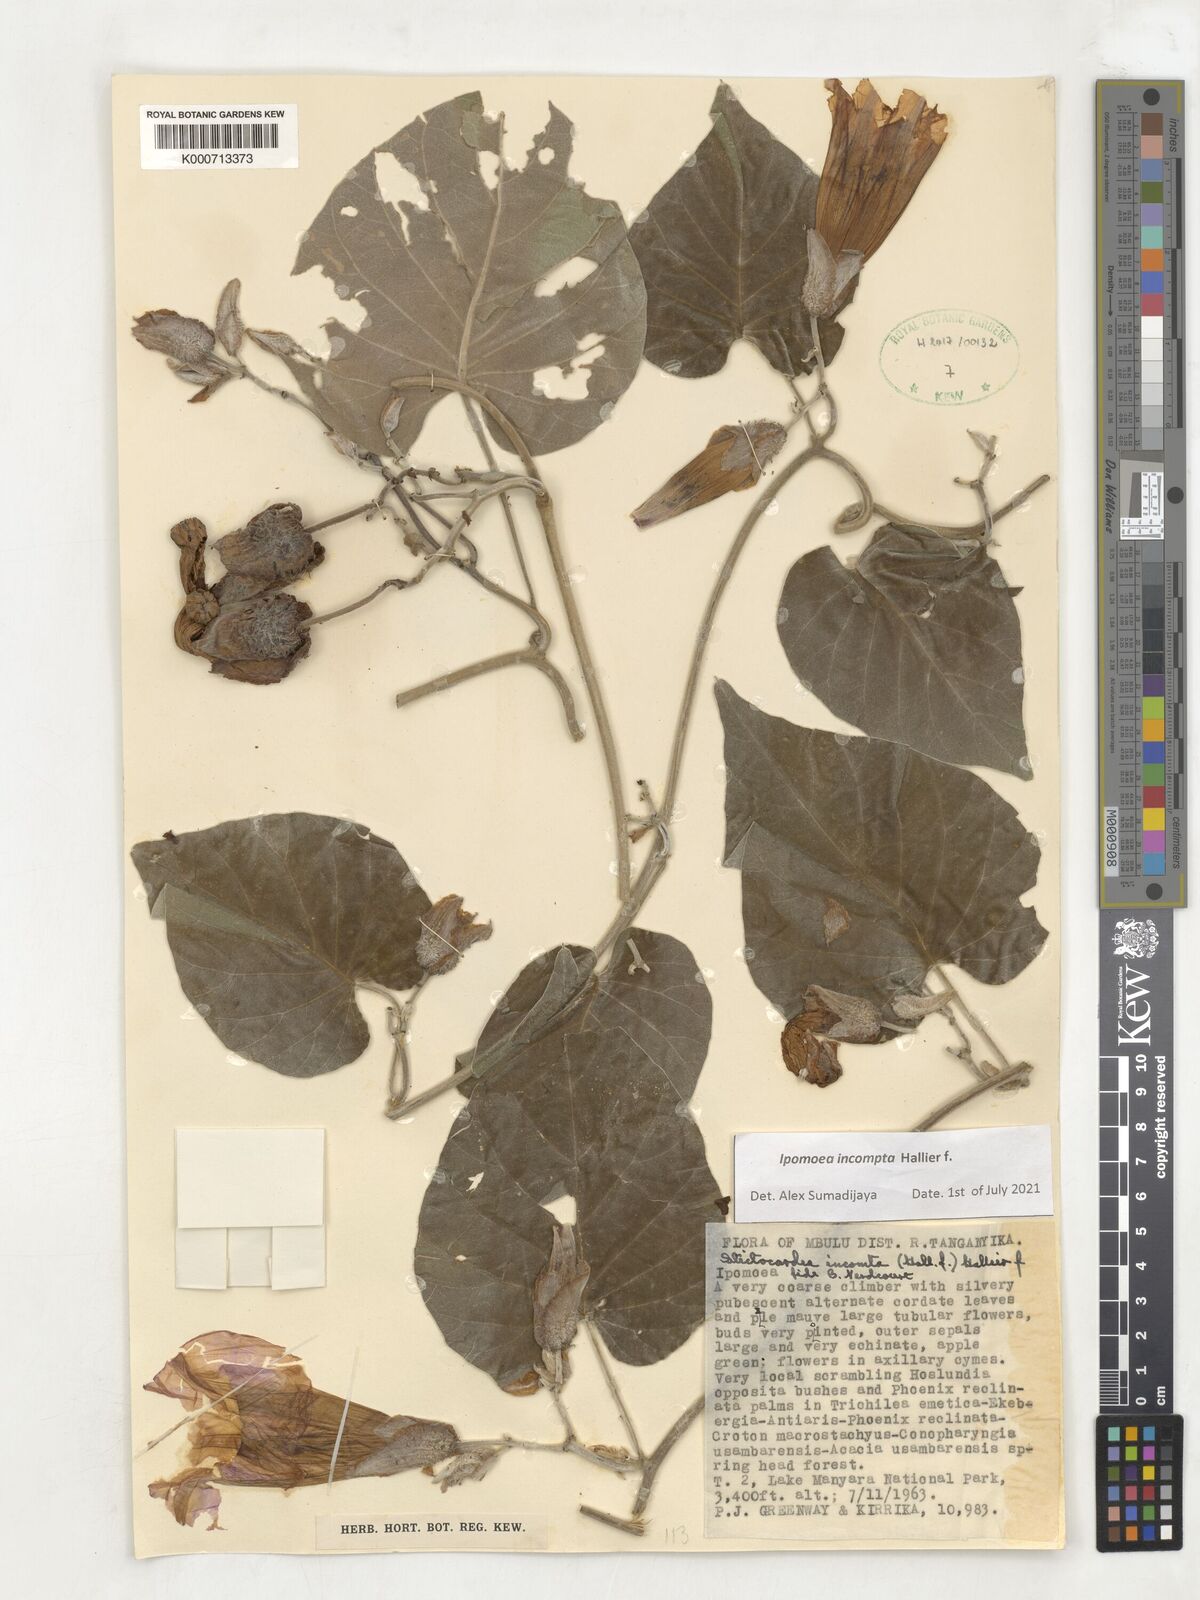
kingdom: Plantae
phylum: Tracheophyta
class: Magnoliopsida
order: Solanales
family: Convolvulaceae
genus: Stictocardia
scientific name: Stictocardia incomta
